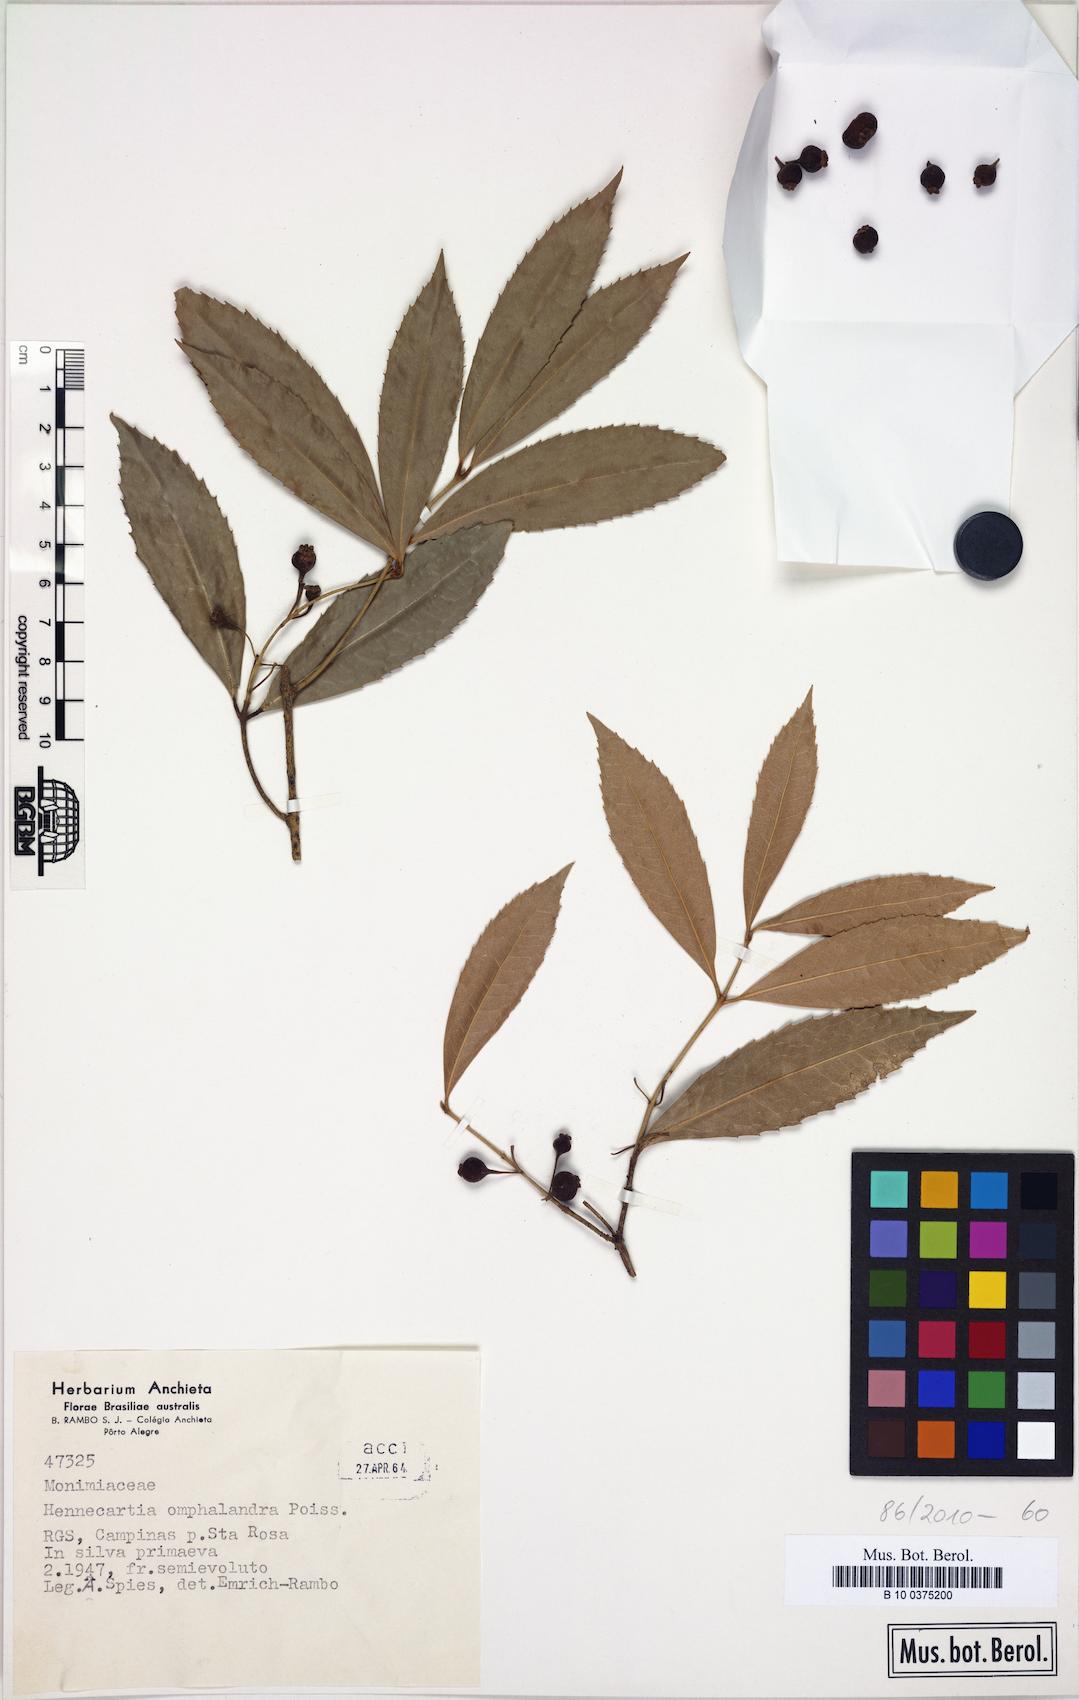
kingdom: Plantae
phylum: Tracheophyta
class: Magnoliopsida
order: Laurales
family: Monimiaceae
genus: Hennecartia
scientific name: Hennecartia omphalandra
